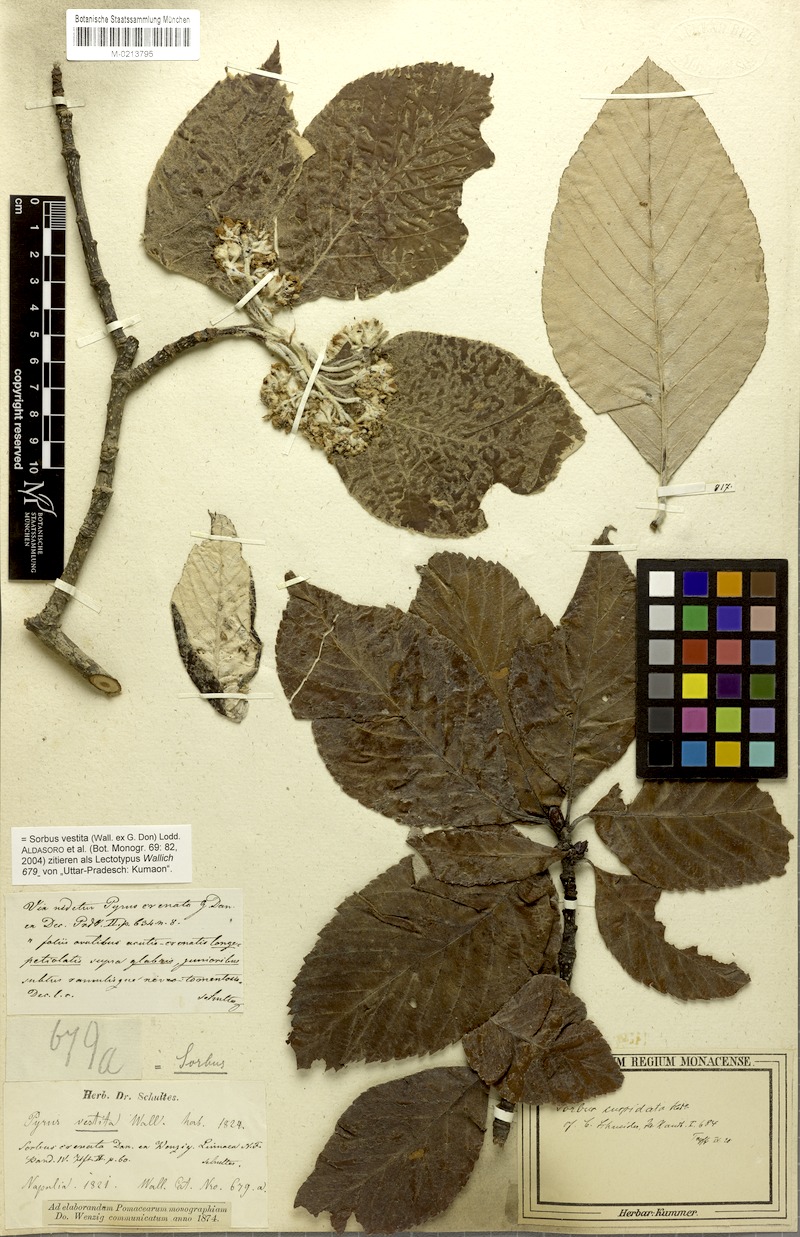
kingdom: Plantae
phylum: Tracheophyta
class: Magnoliopsida
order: Rosales
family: Rosaceae
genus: Sorbus
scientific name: Sorbus vestita
